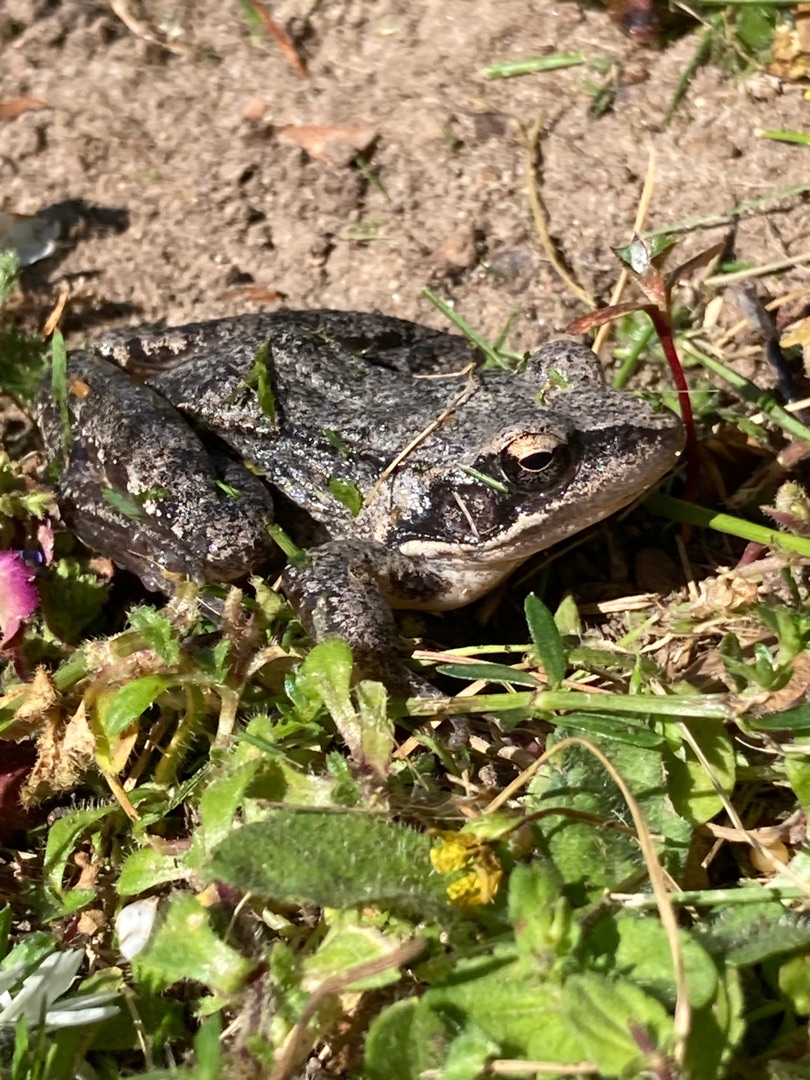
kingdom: Animalia
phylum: Chordata
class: Amphibia
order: Anura
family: Ranidae
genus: Rana
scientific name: Rana dalmatina
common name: Springfrø
